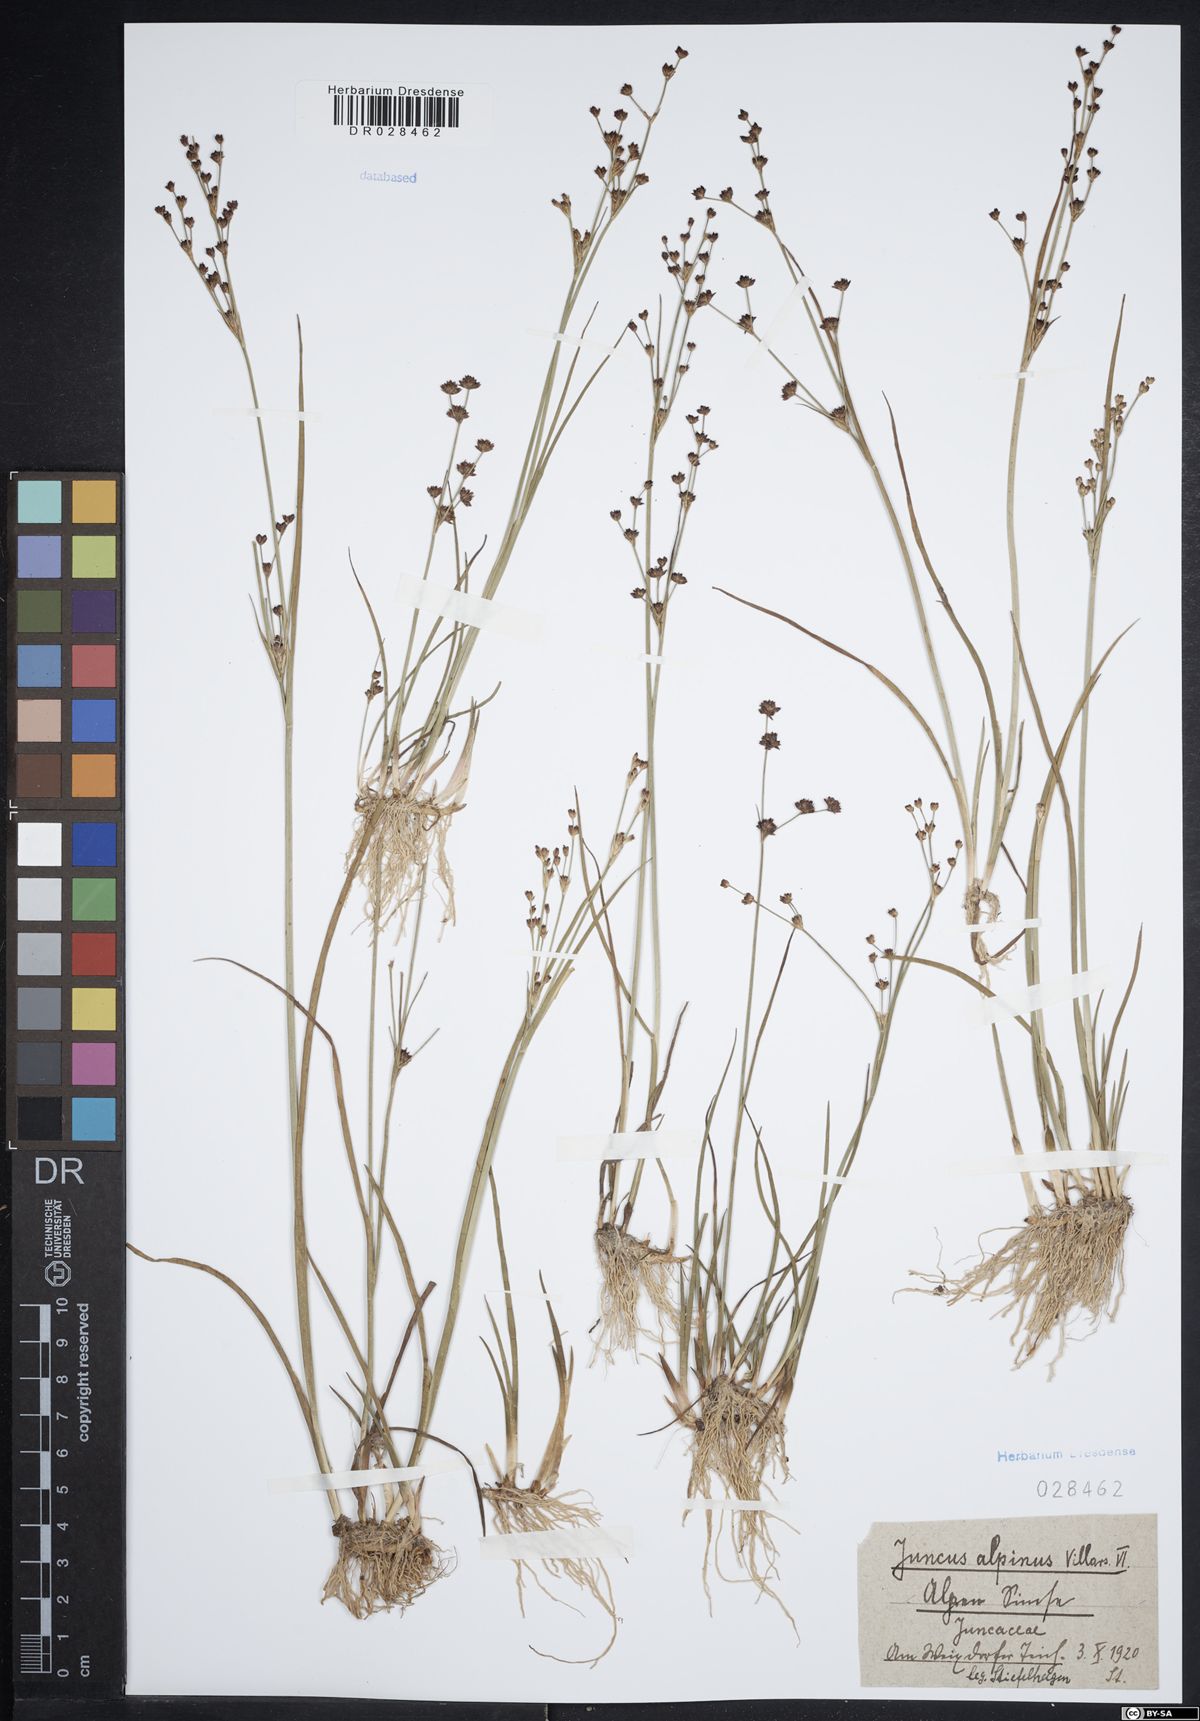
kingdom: Plantae
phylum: Tracheophyta
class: Liliopsida
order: Poales
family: Juncaceae
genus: Juncus
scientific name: Juncus alpinoarticulatus
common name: Alpine rush
